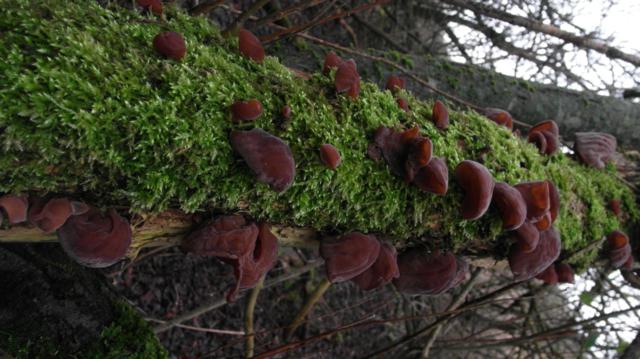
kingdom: Fungi
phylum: Basidiomycota
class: Agaricomycetes
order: Auriculariales
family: Auriculariaceae
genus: Auricularia
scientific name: Auricularia auricula-judae
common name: almindelig judasøre
